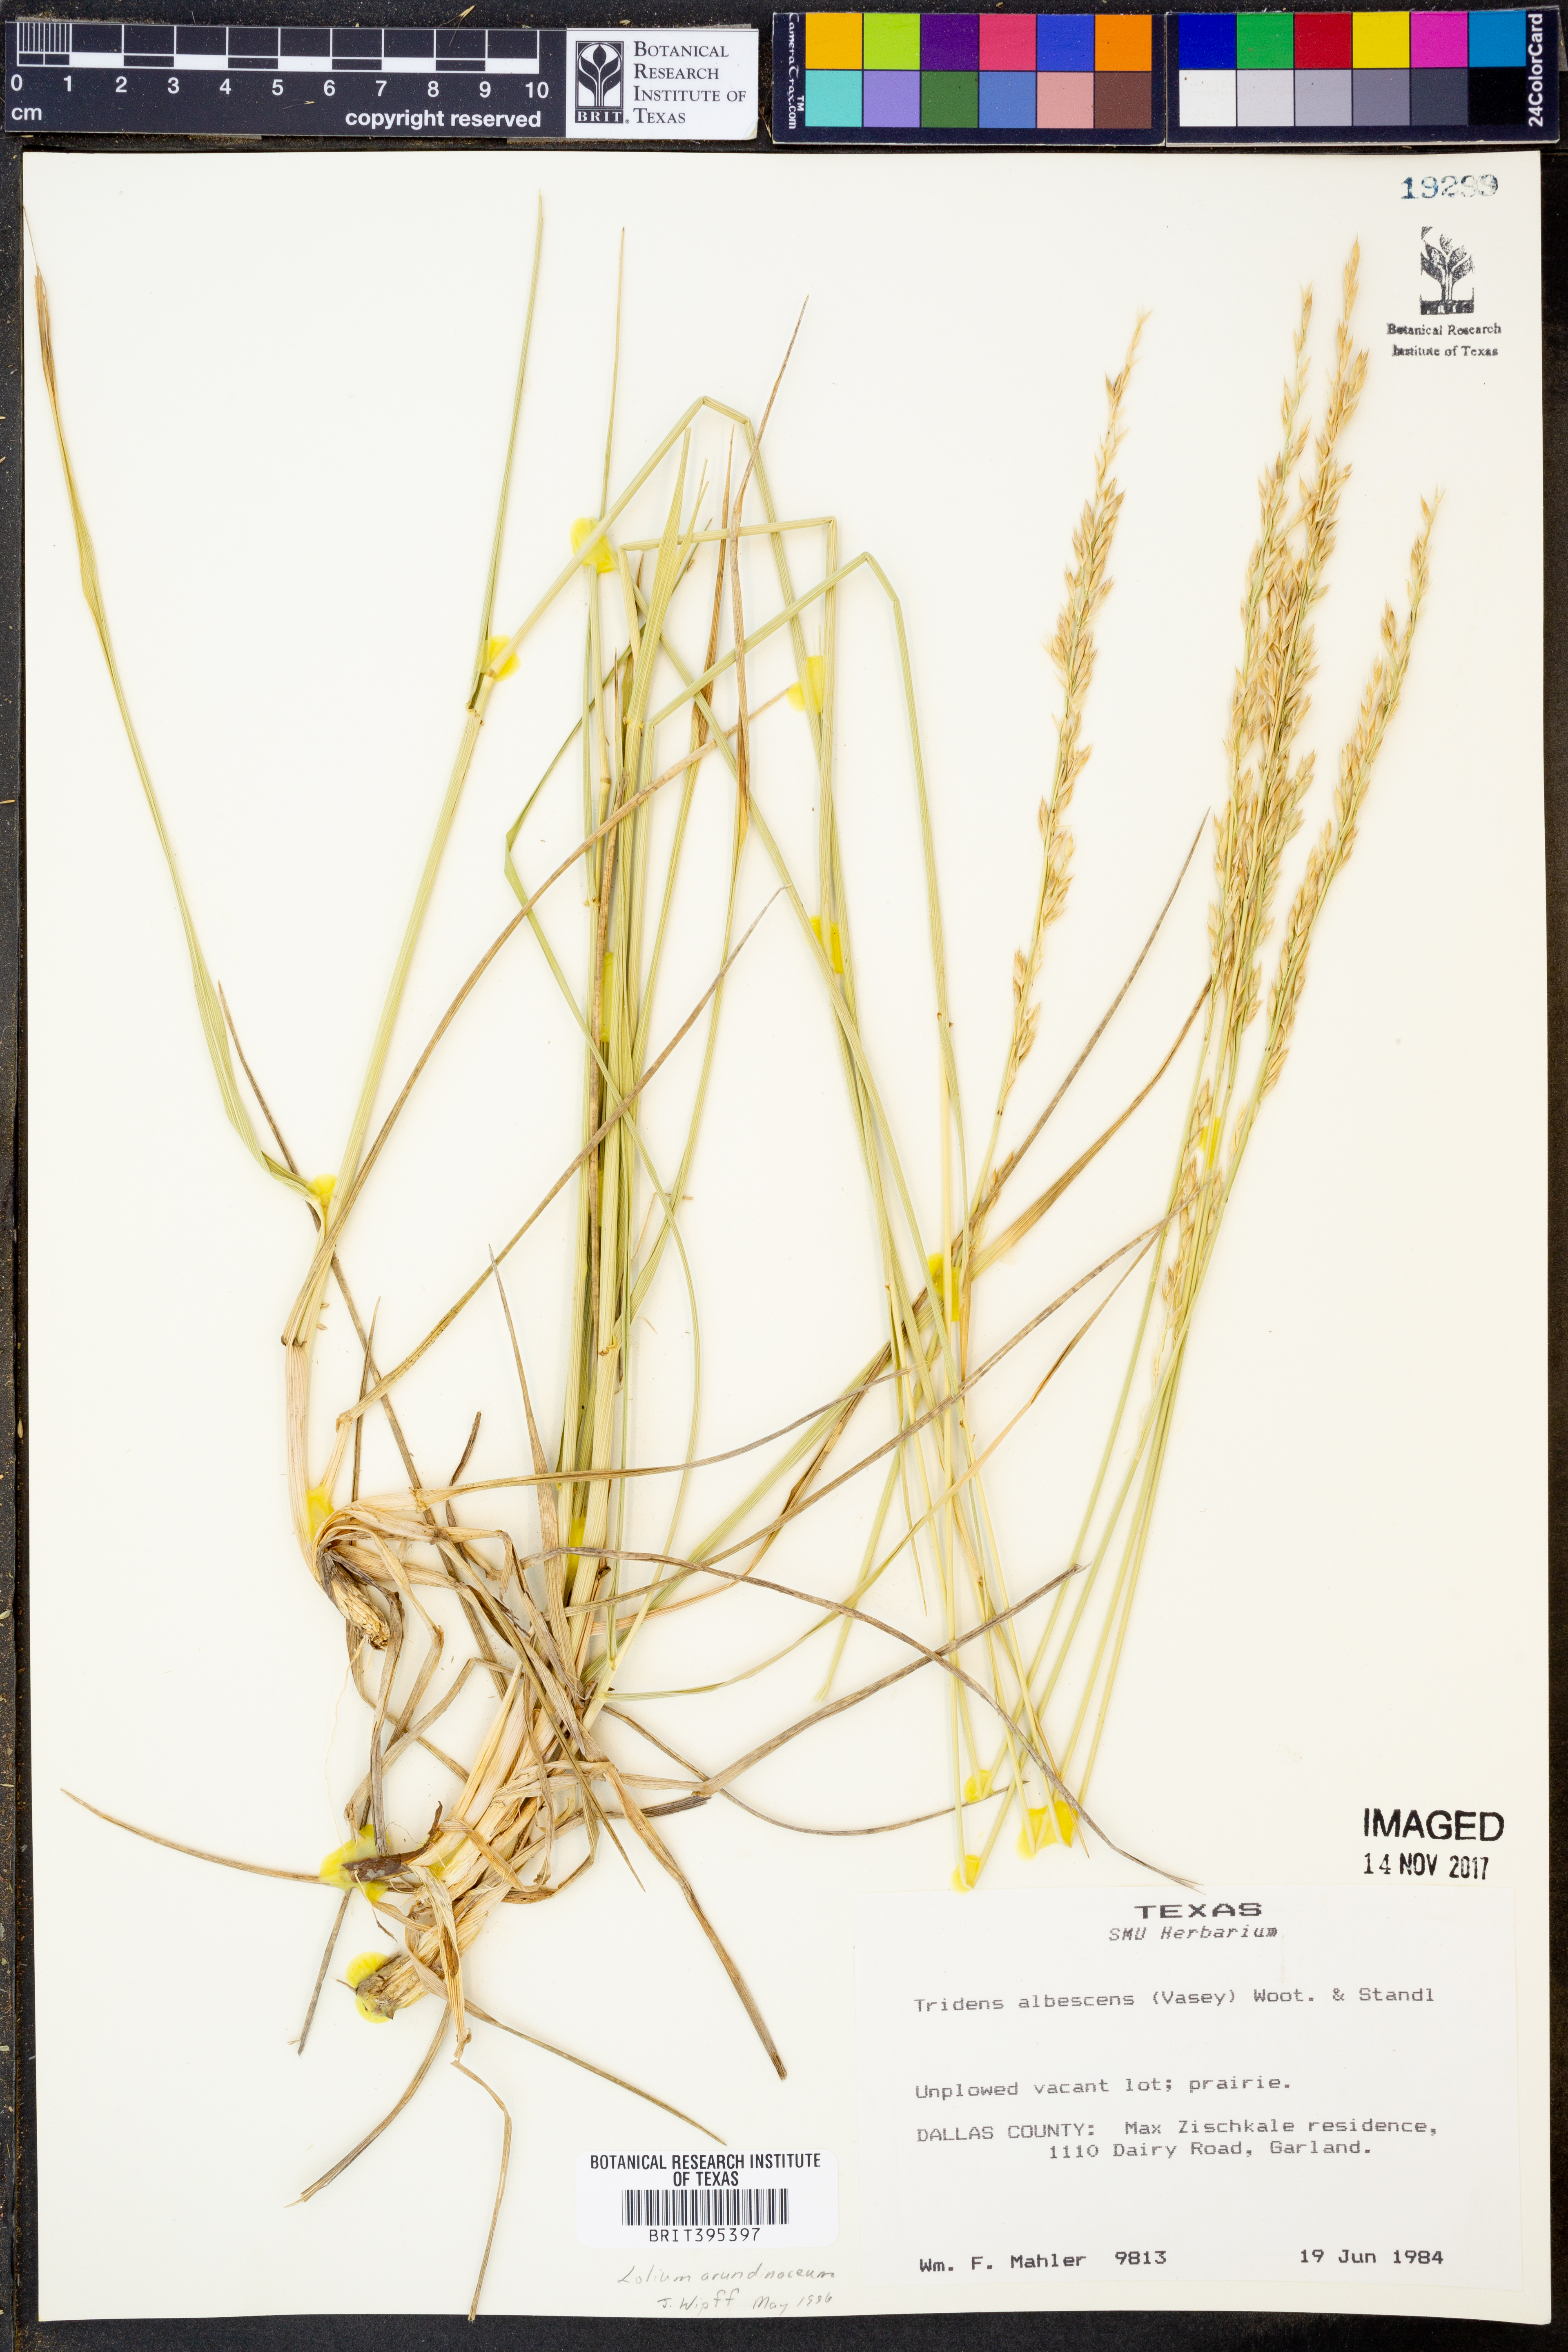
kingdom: Plantae
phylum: Tracheophyta
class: Liliopsida
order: Poales
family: Poaceae
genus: Lolium
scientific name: Lolium arundinaceum
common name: Reed fescue
